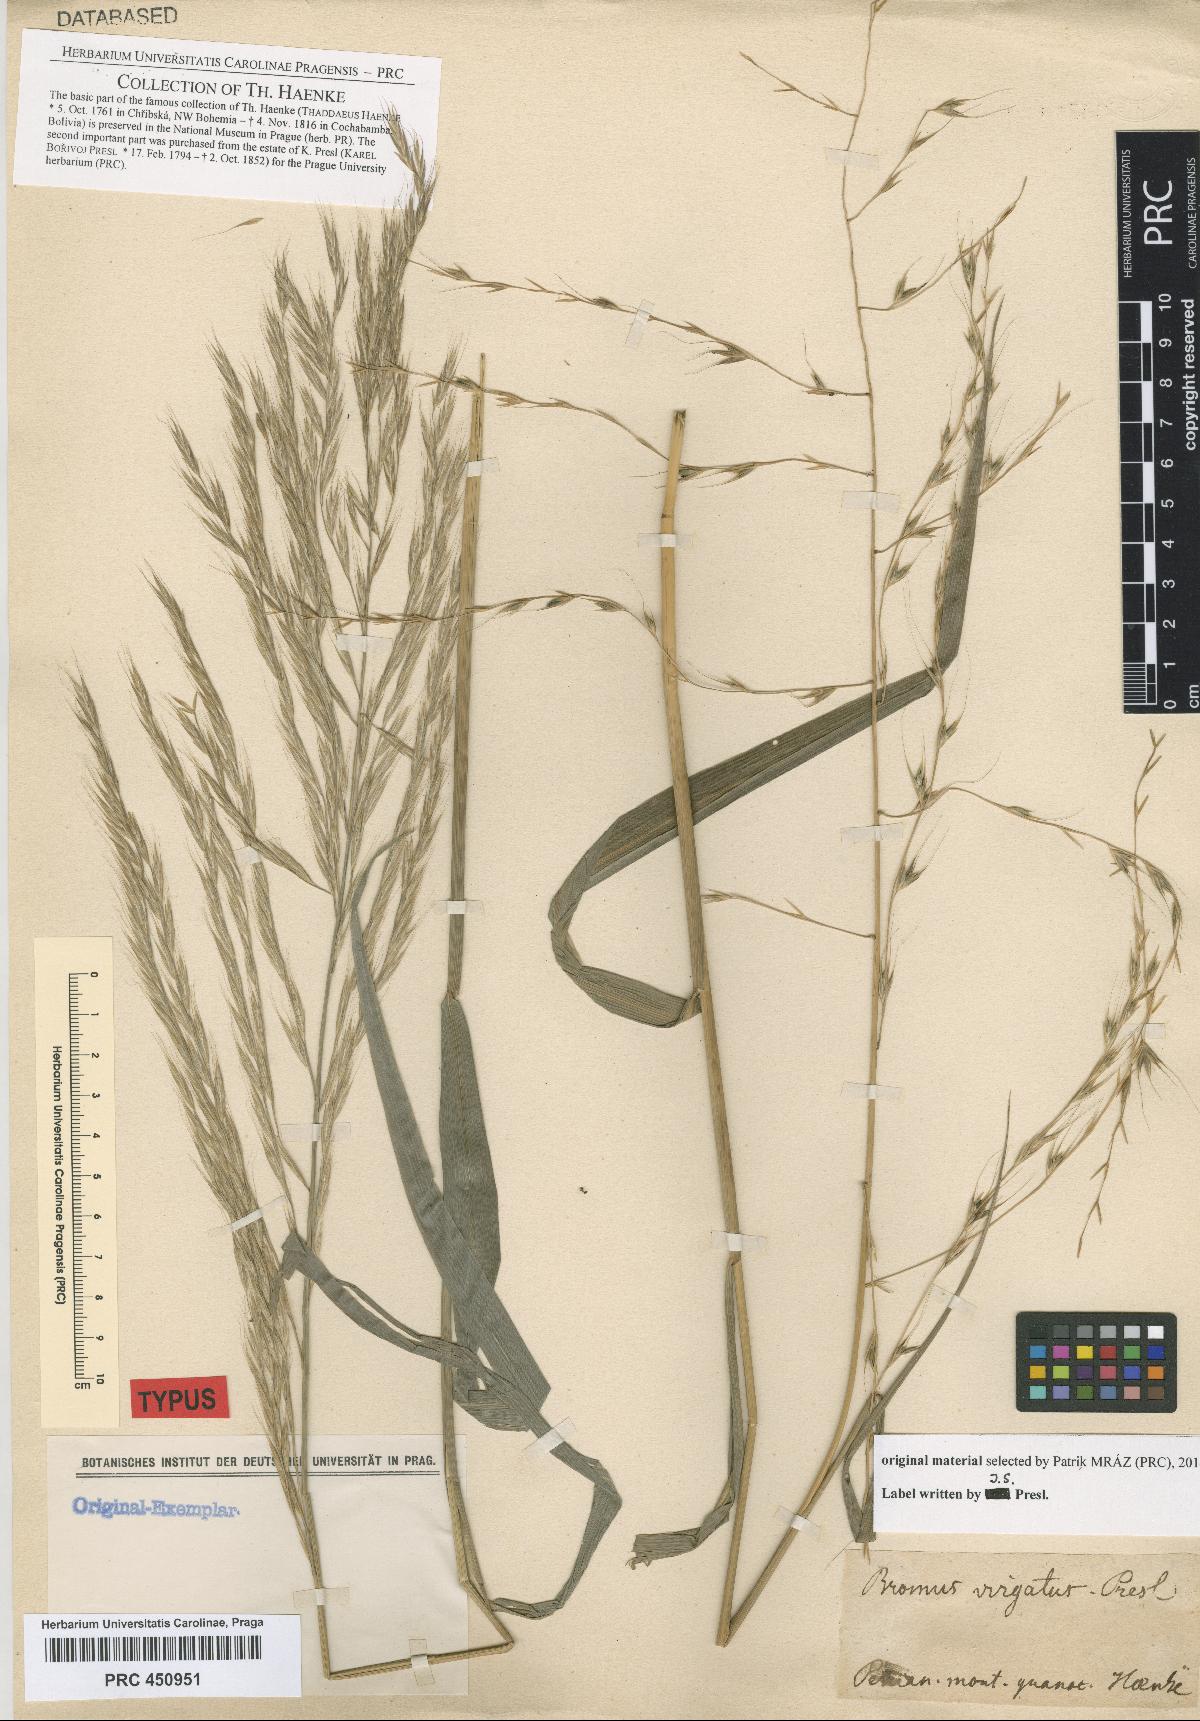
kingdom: Plantae
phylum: Tracheophyta
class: Liliopsida
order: Poales
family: Poaceae
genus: Gouinia
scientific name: Gouinia virgata
